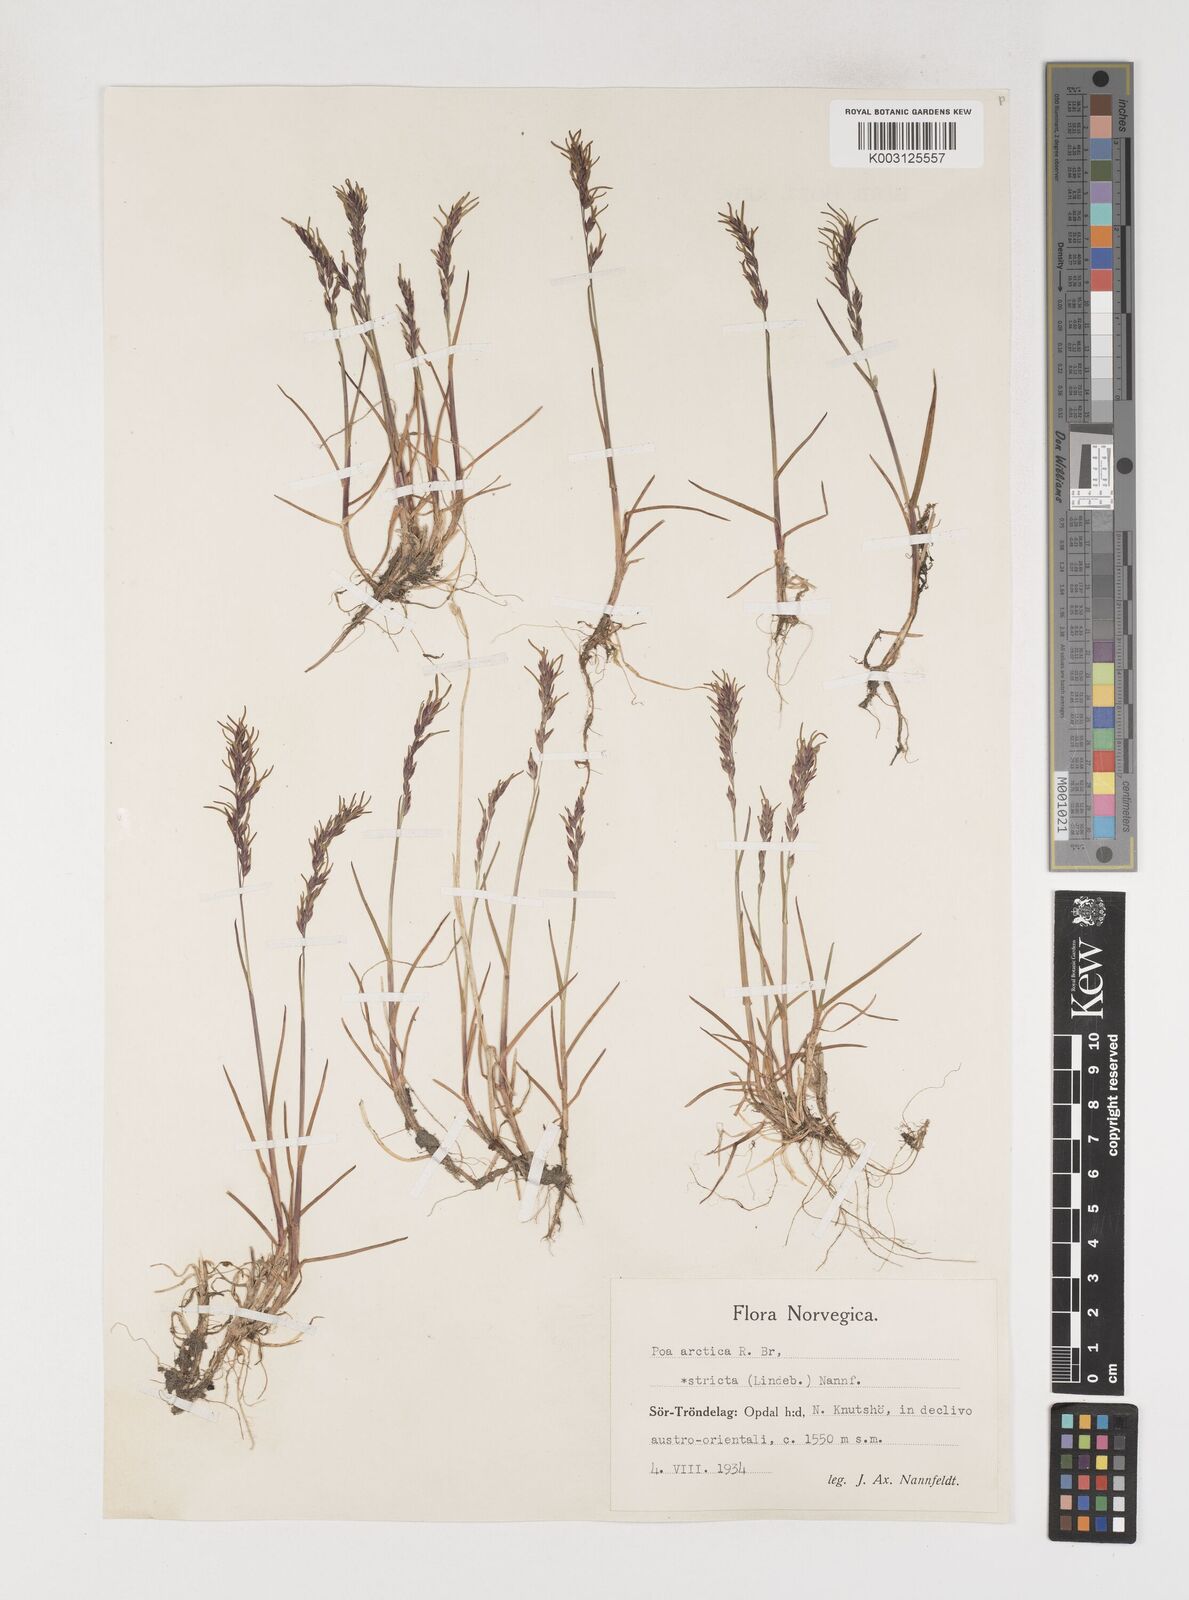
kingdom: Plantae
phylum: Tracheophyta
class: Liliopsida
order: Poales
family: Poaceae
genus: Poa
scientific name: Poa arctica
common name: Arctic bluegrass
